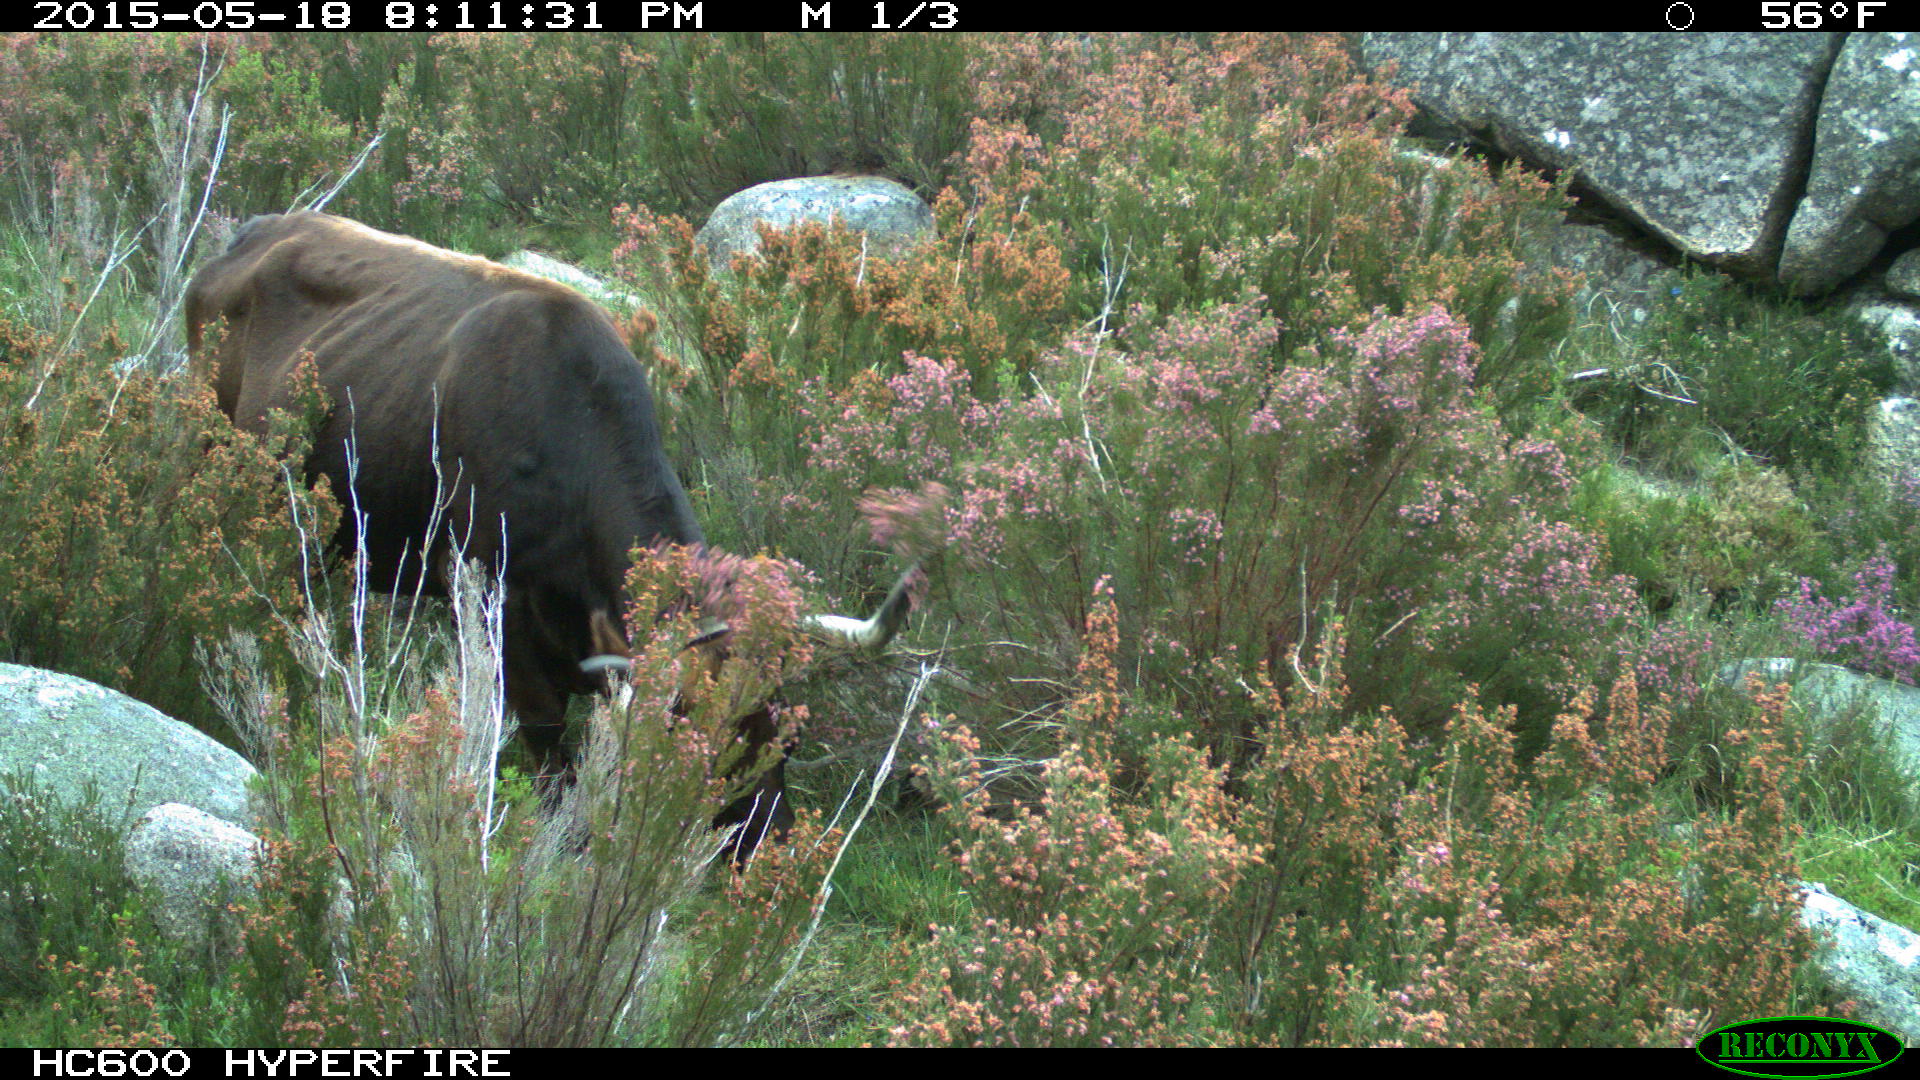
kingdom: Animalia
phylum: Chordata
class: Mammalia
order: Artiodactyla
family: Bovidae
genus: Bos
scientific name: Bos taurus
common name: Domesticated cattle
